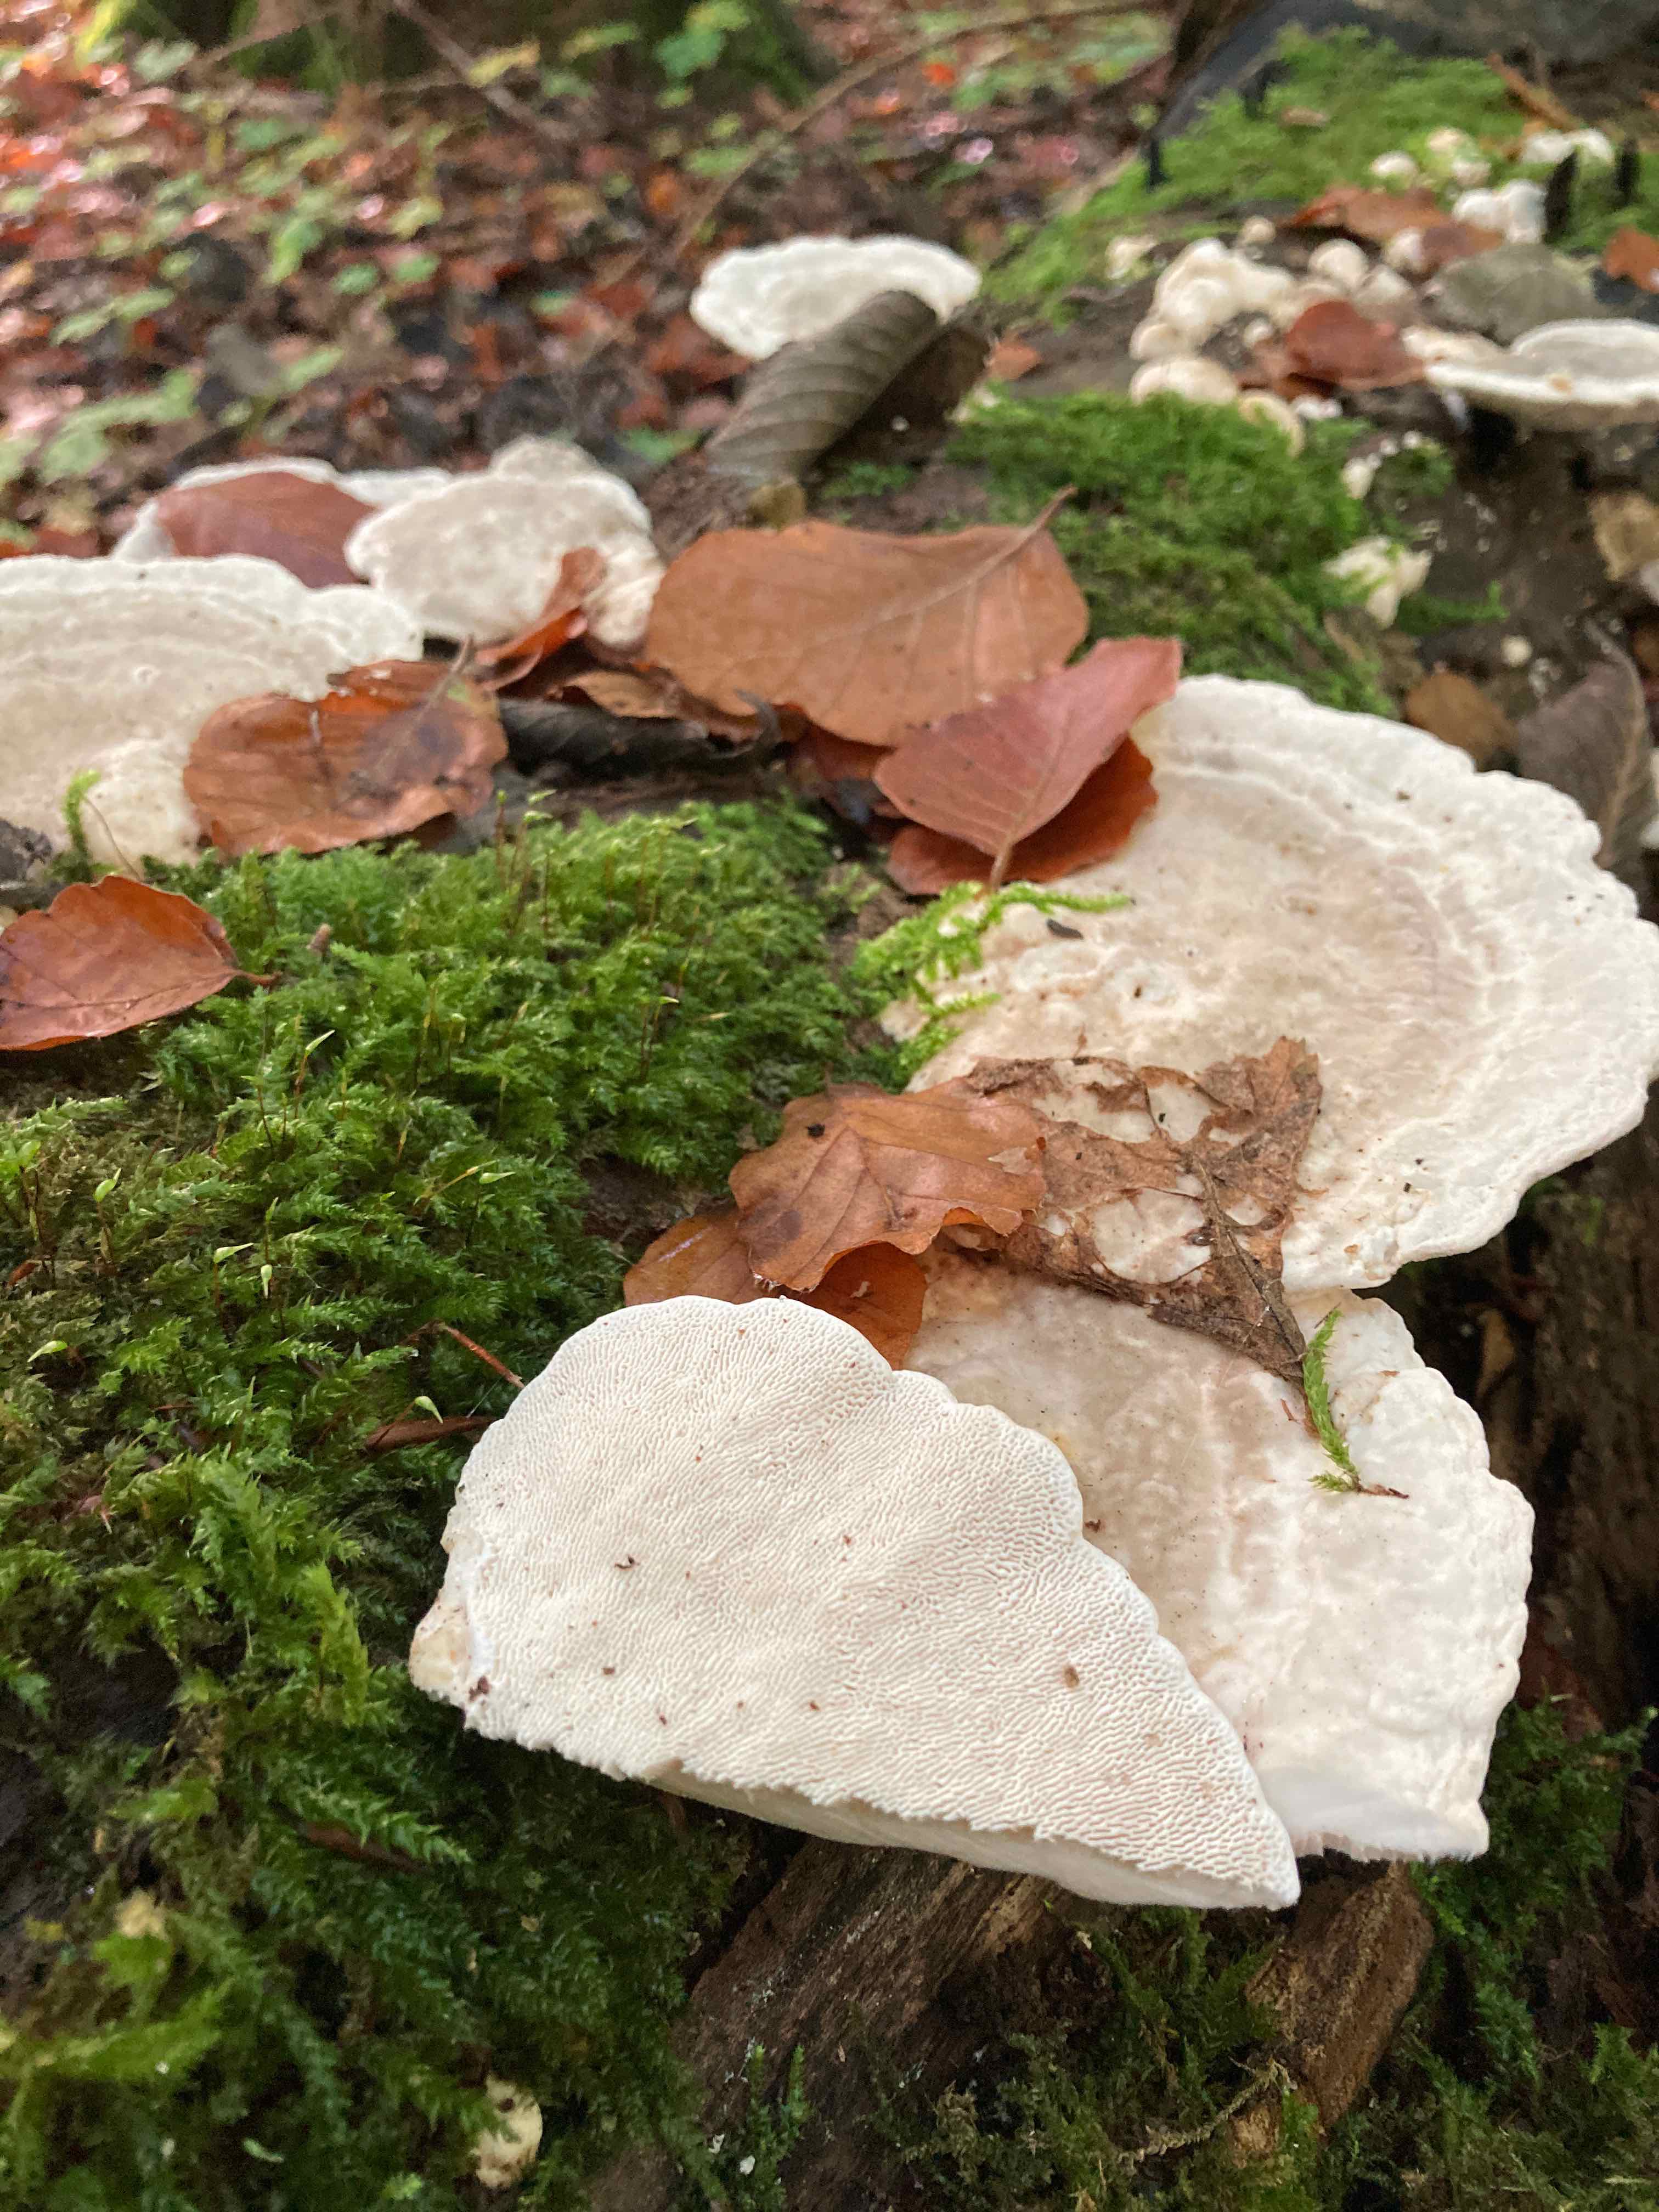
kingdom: Fungi
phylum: Basidiomycota
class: Agaricomycetes
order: Polyporales
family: Polyporaceae
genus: Trametes
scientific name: Trametes gibbosa
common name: puklet læderporesvamp
